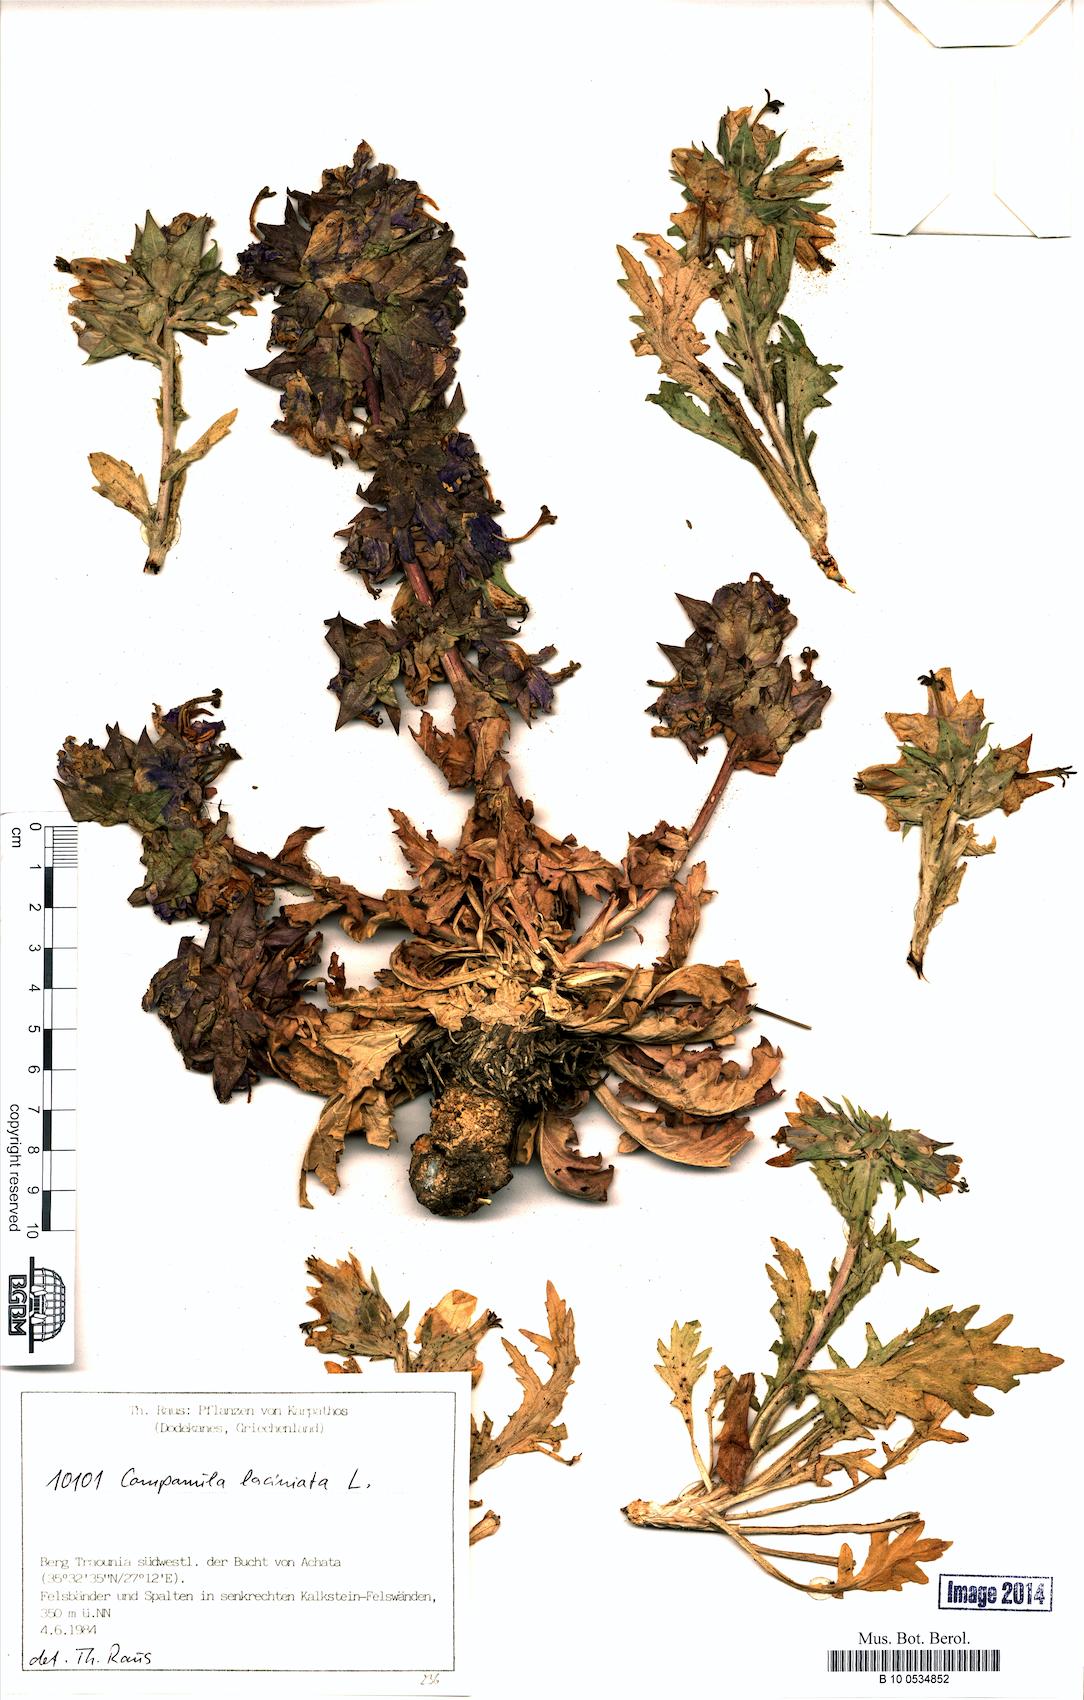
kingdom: Plantae
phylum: Tracheophyta
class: Magnoliopsida
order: Asterales
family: Campanulaceae
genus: Campanula
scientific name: Campanula laciniata
